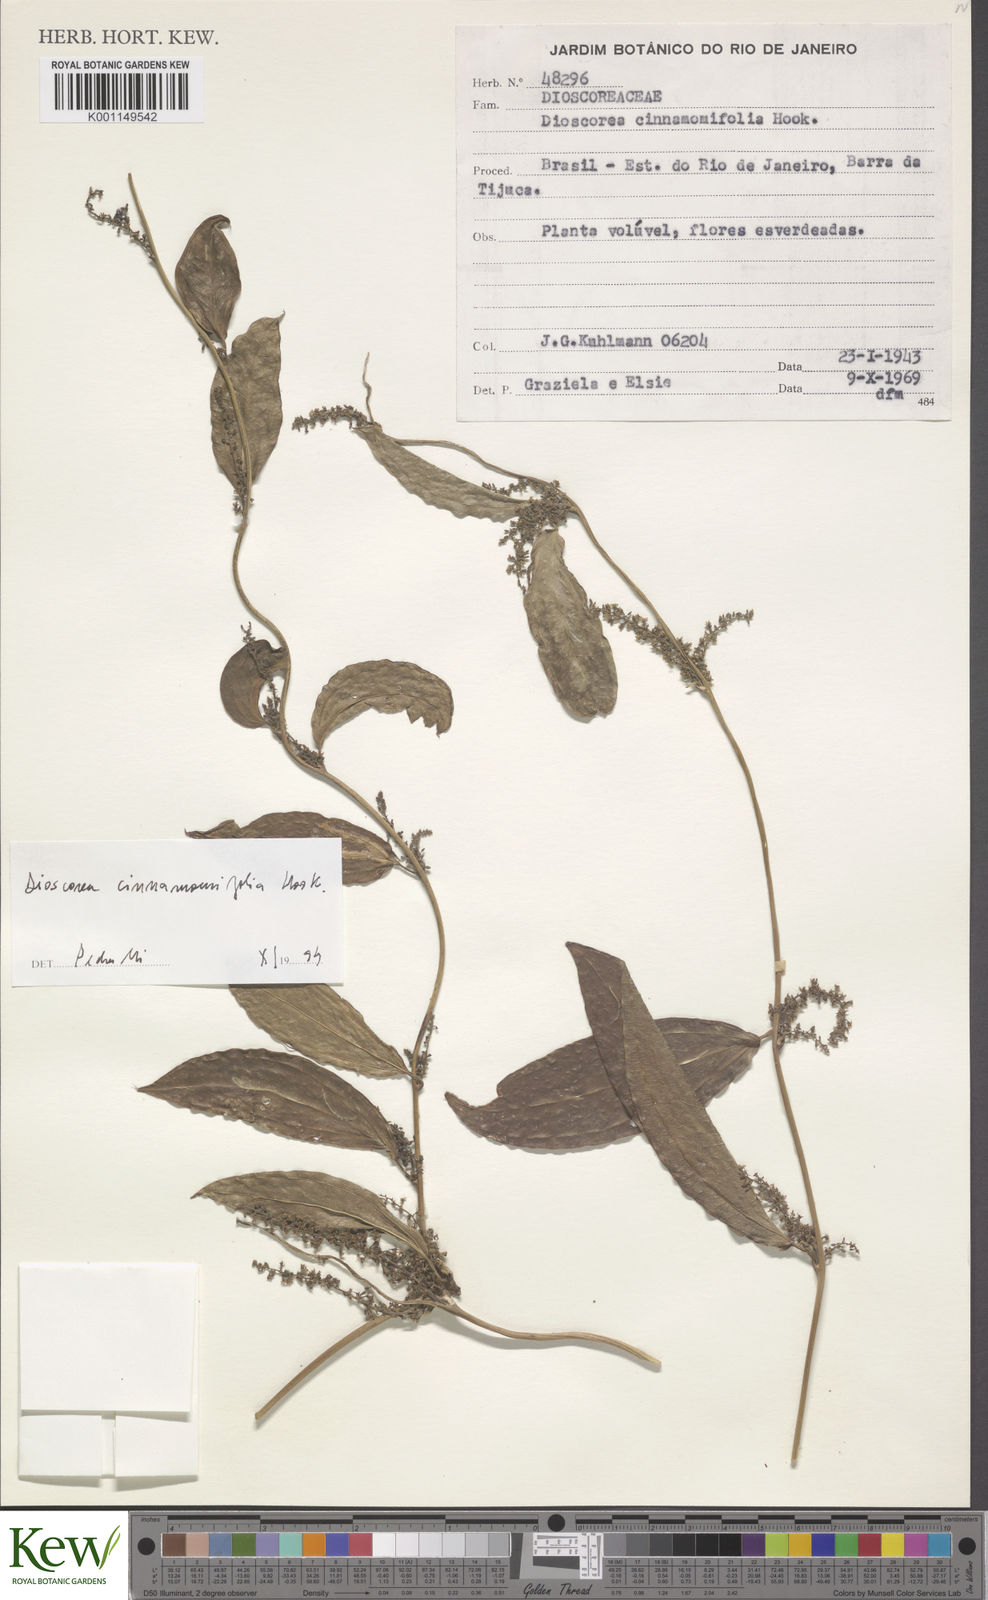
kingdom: Plantae
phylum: Tracheophyta
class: Liliopsida
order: Dioscoreales
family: Dioscoreaceae
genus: Dioscorea
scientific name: Dioscorea cinnamomifolia
